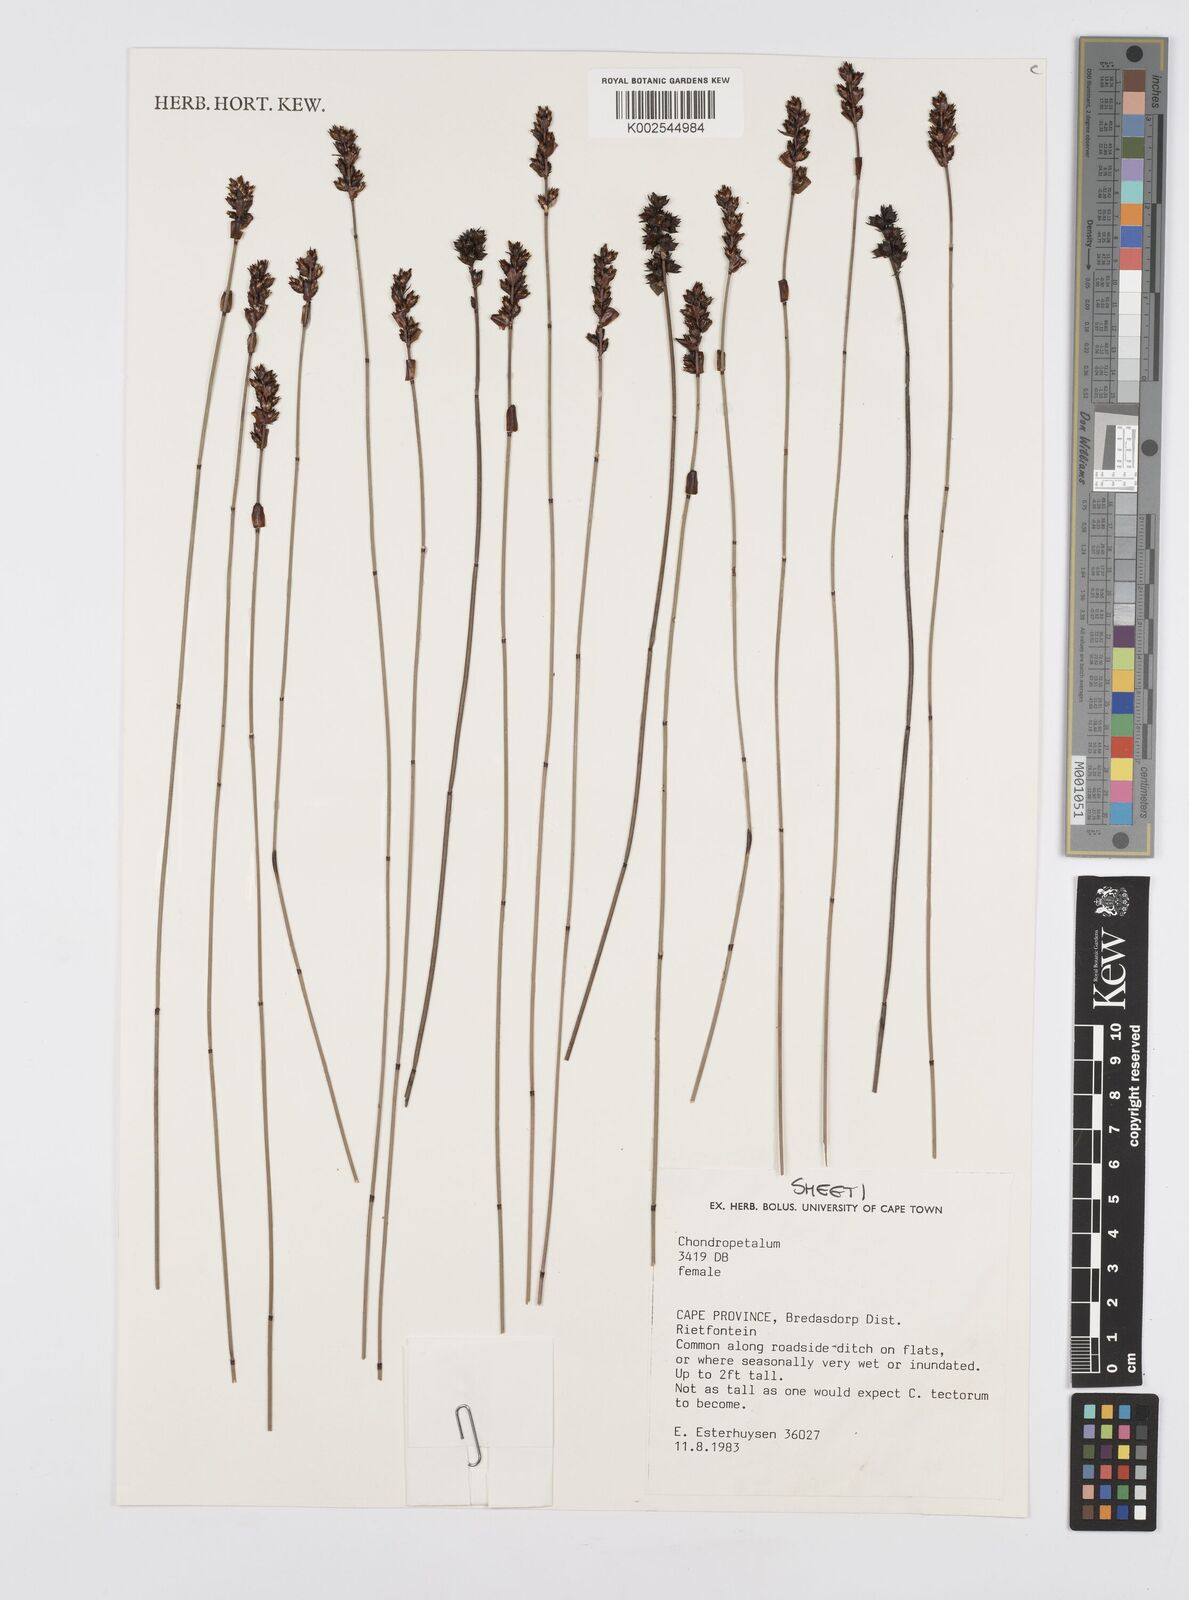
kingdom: Plantae
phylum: Tracheophyta
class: Liliopsida
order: Poales
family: Restionaceae
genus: Elegia
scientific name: Elegia
